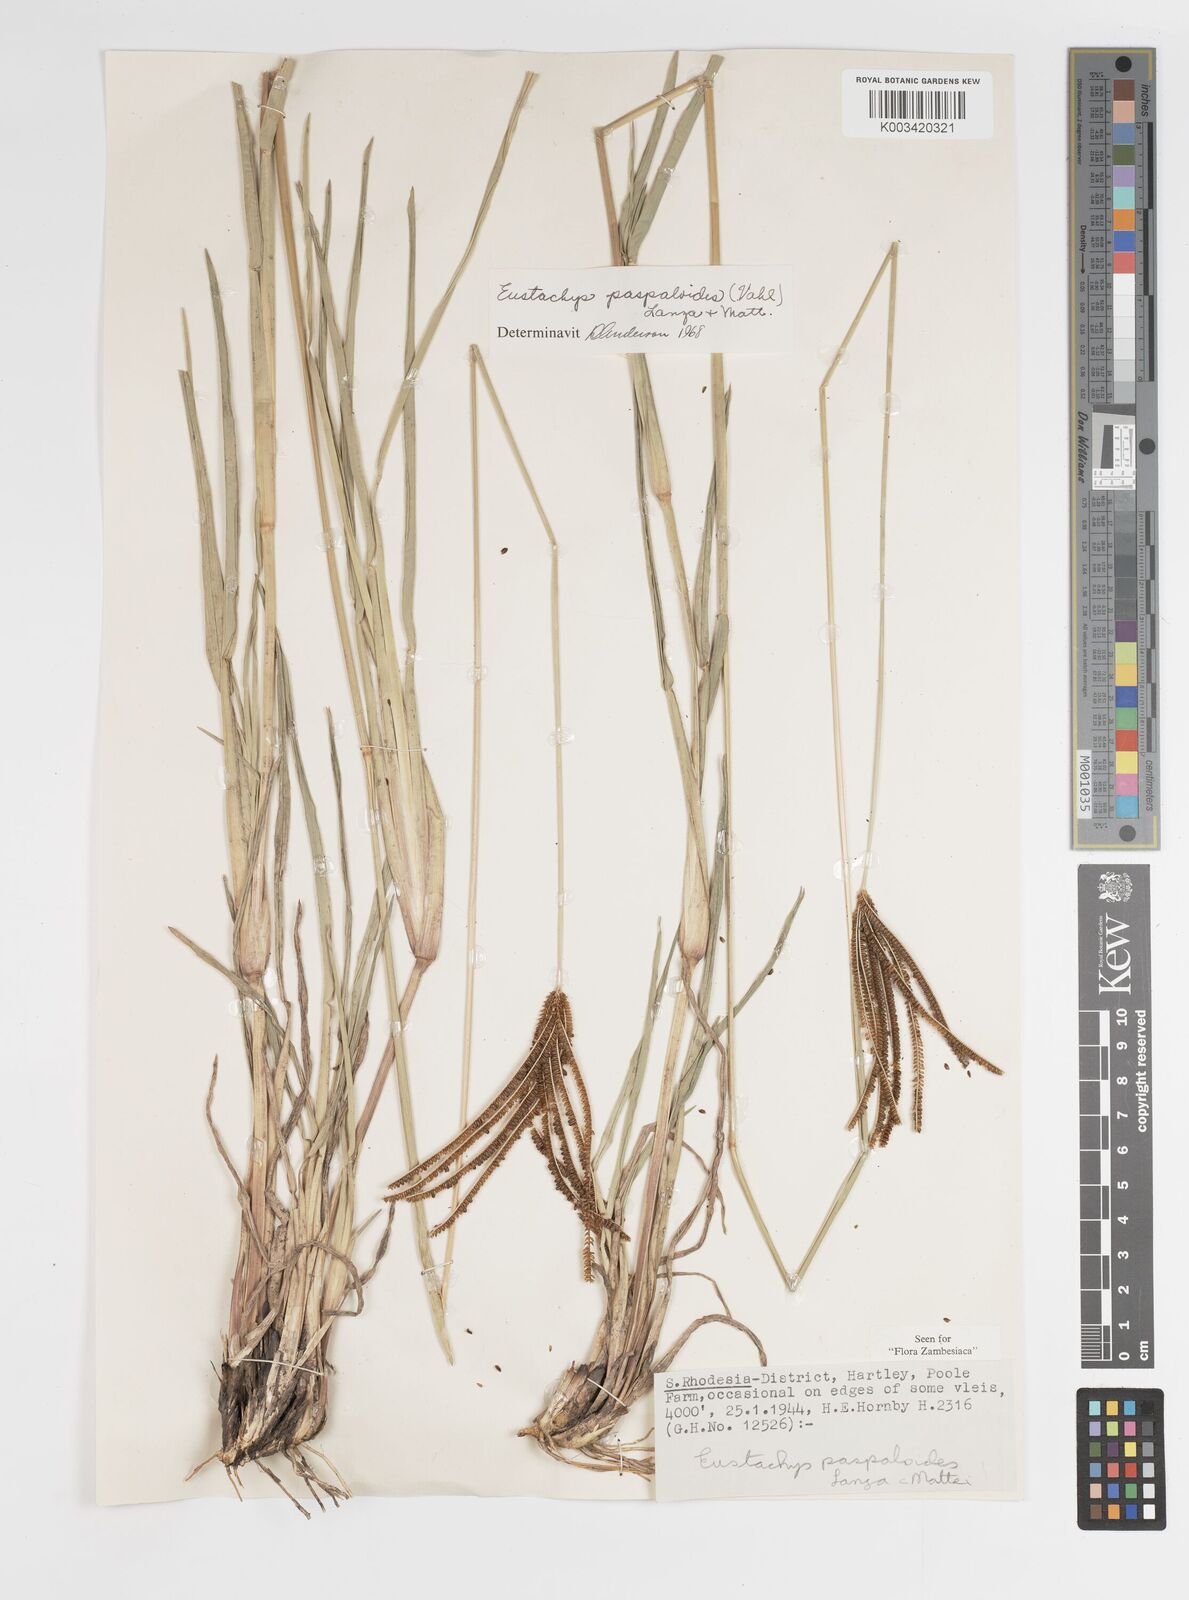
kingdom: Plantae
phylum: Tracheophyta
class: Liliopsida
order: Poales
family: Poaceae
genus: Eustachys
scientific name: Eustachys paspaloides
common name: Caribbean fingergrass
